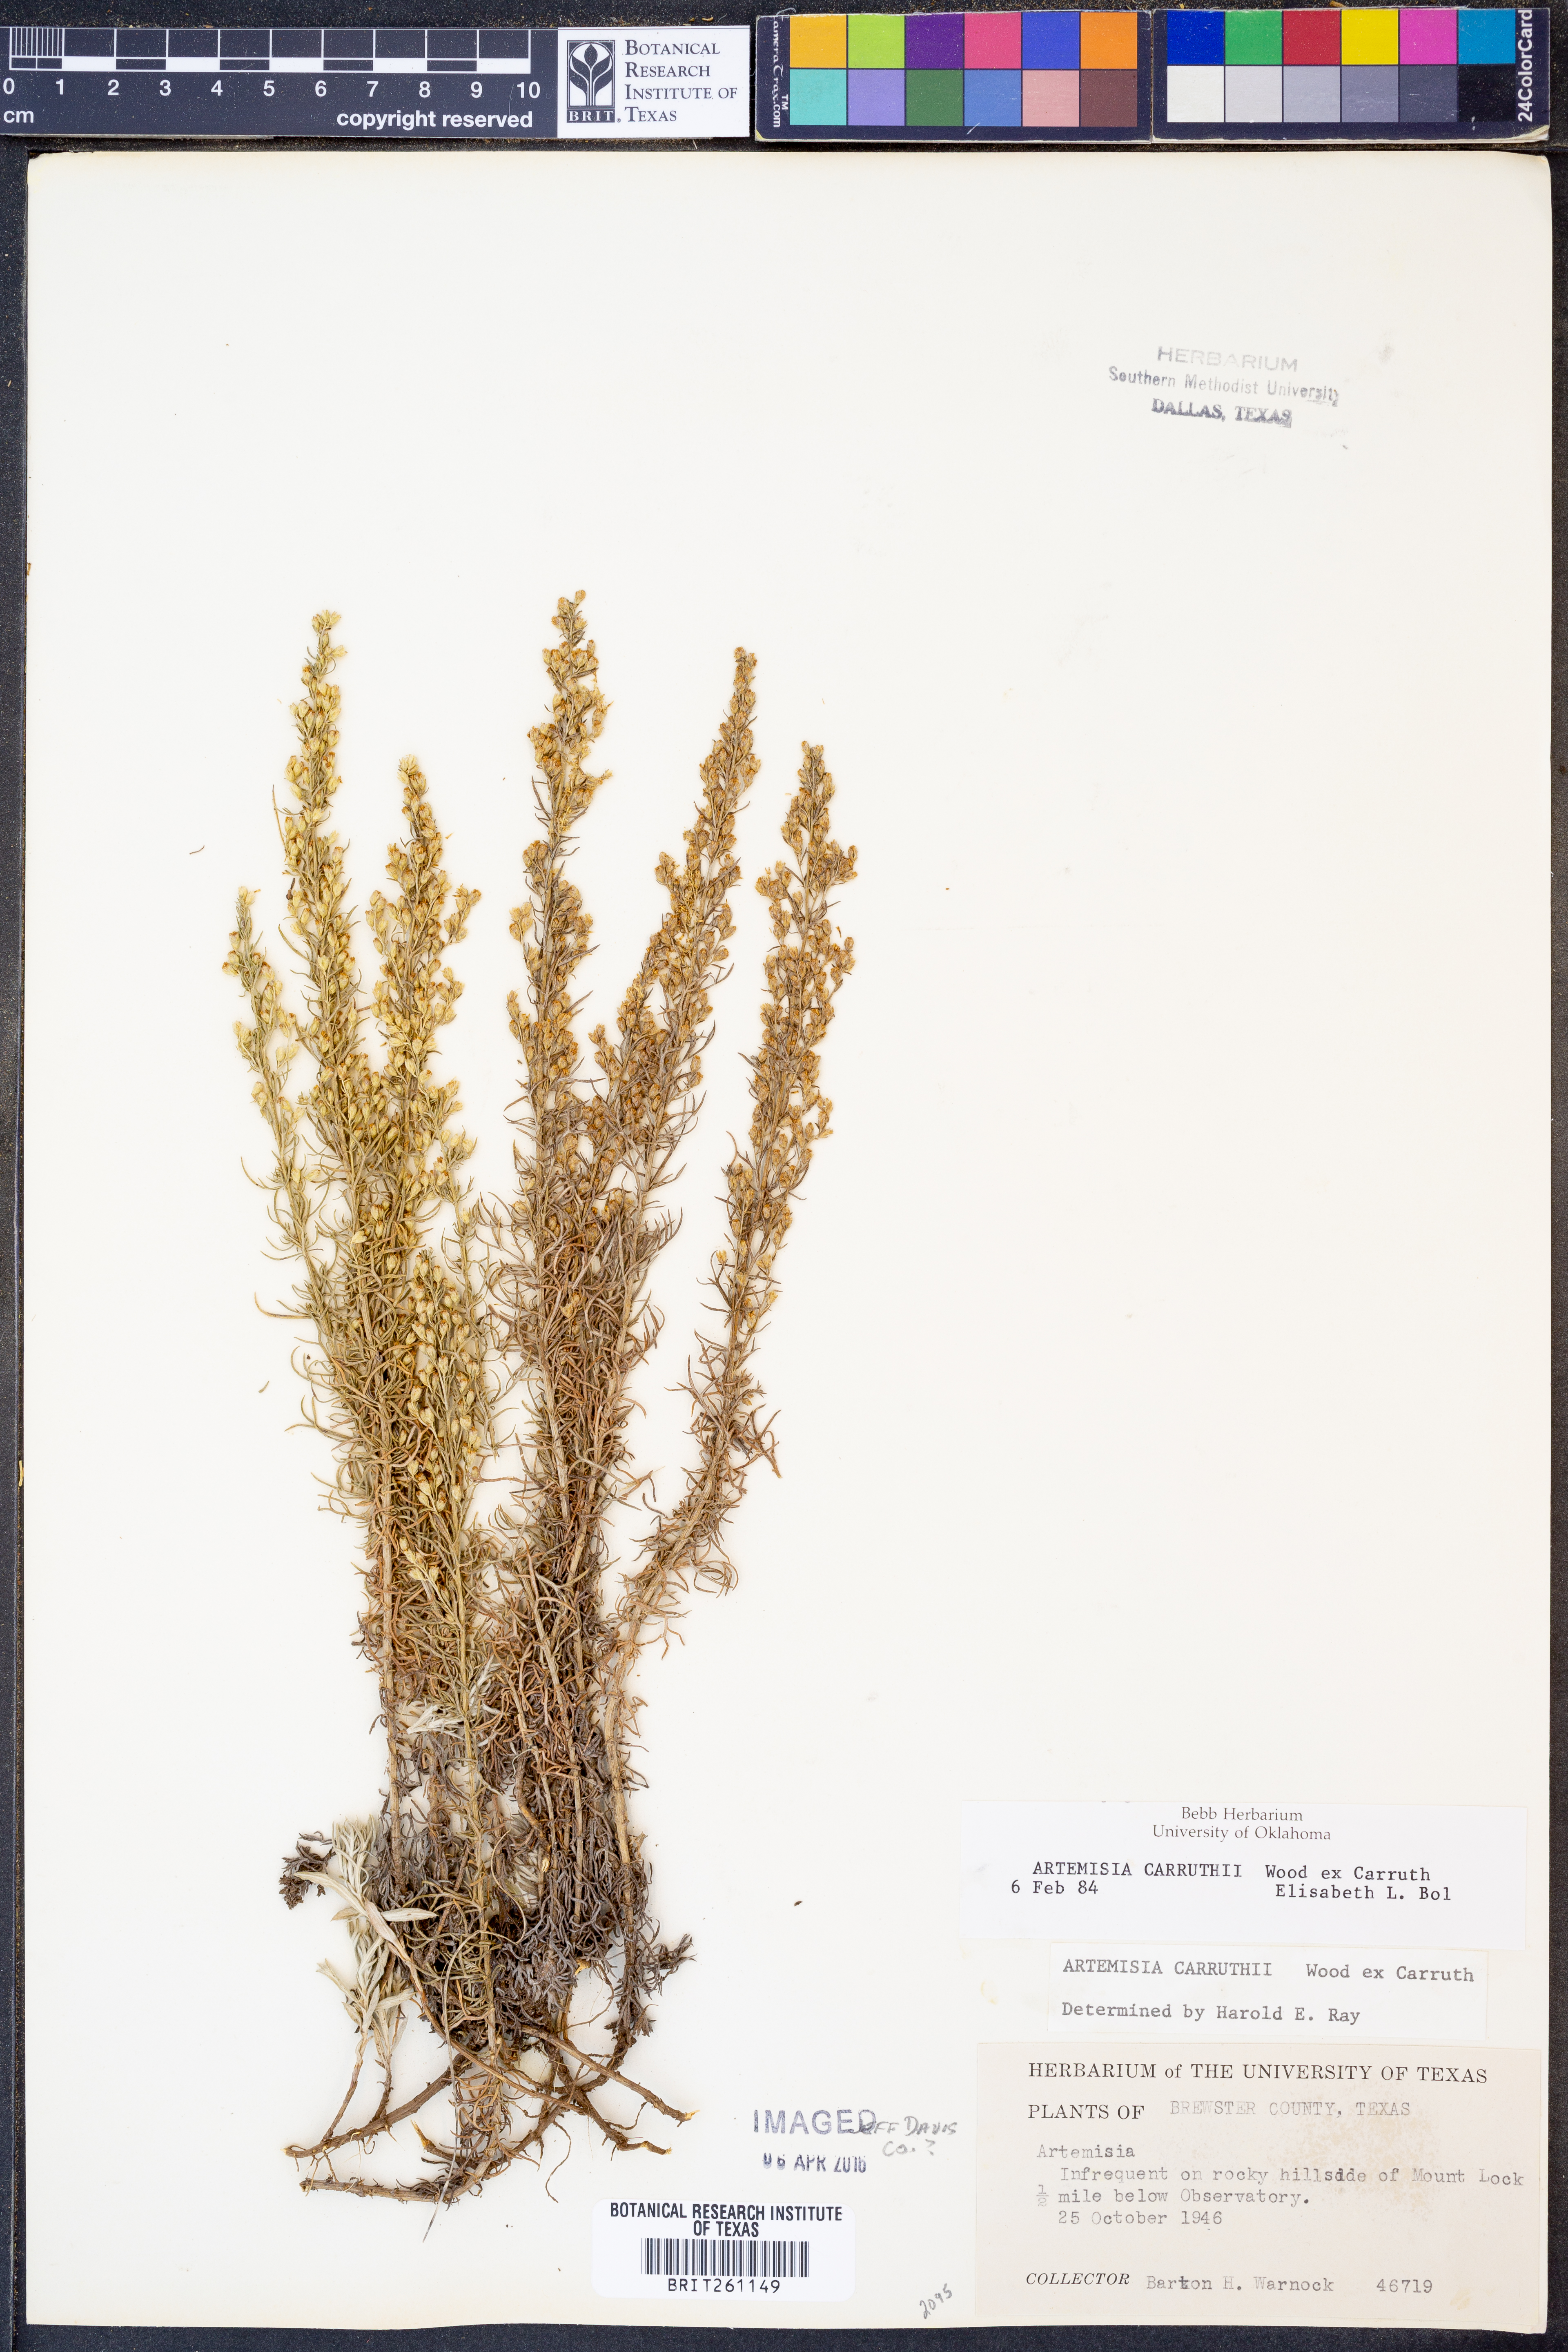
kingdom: Plantae
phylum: Tracheophyta
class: Magnoliopsida
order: Asterales
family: Asteraceae
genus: Artemisia
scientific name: Artemisia carruthii
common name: Carruth wormwood
